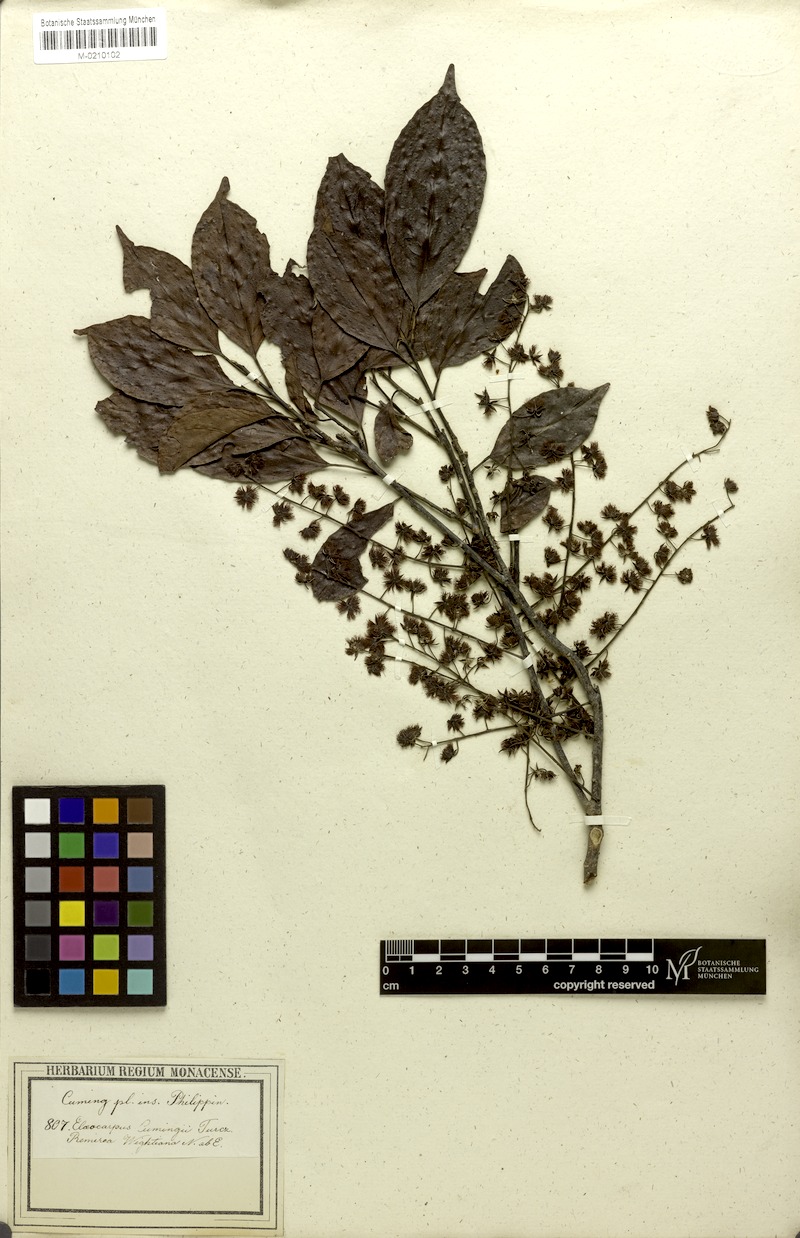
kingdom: Plantae
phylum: Tracheophyta
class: Magnoliopsida
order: Oxalidales
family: Elaeocarpaceae
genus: Elaeocarpus
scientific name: Elaeocarpus cumingii
